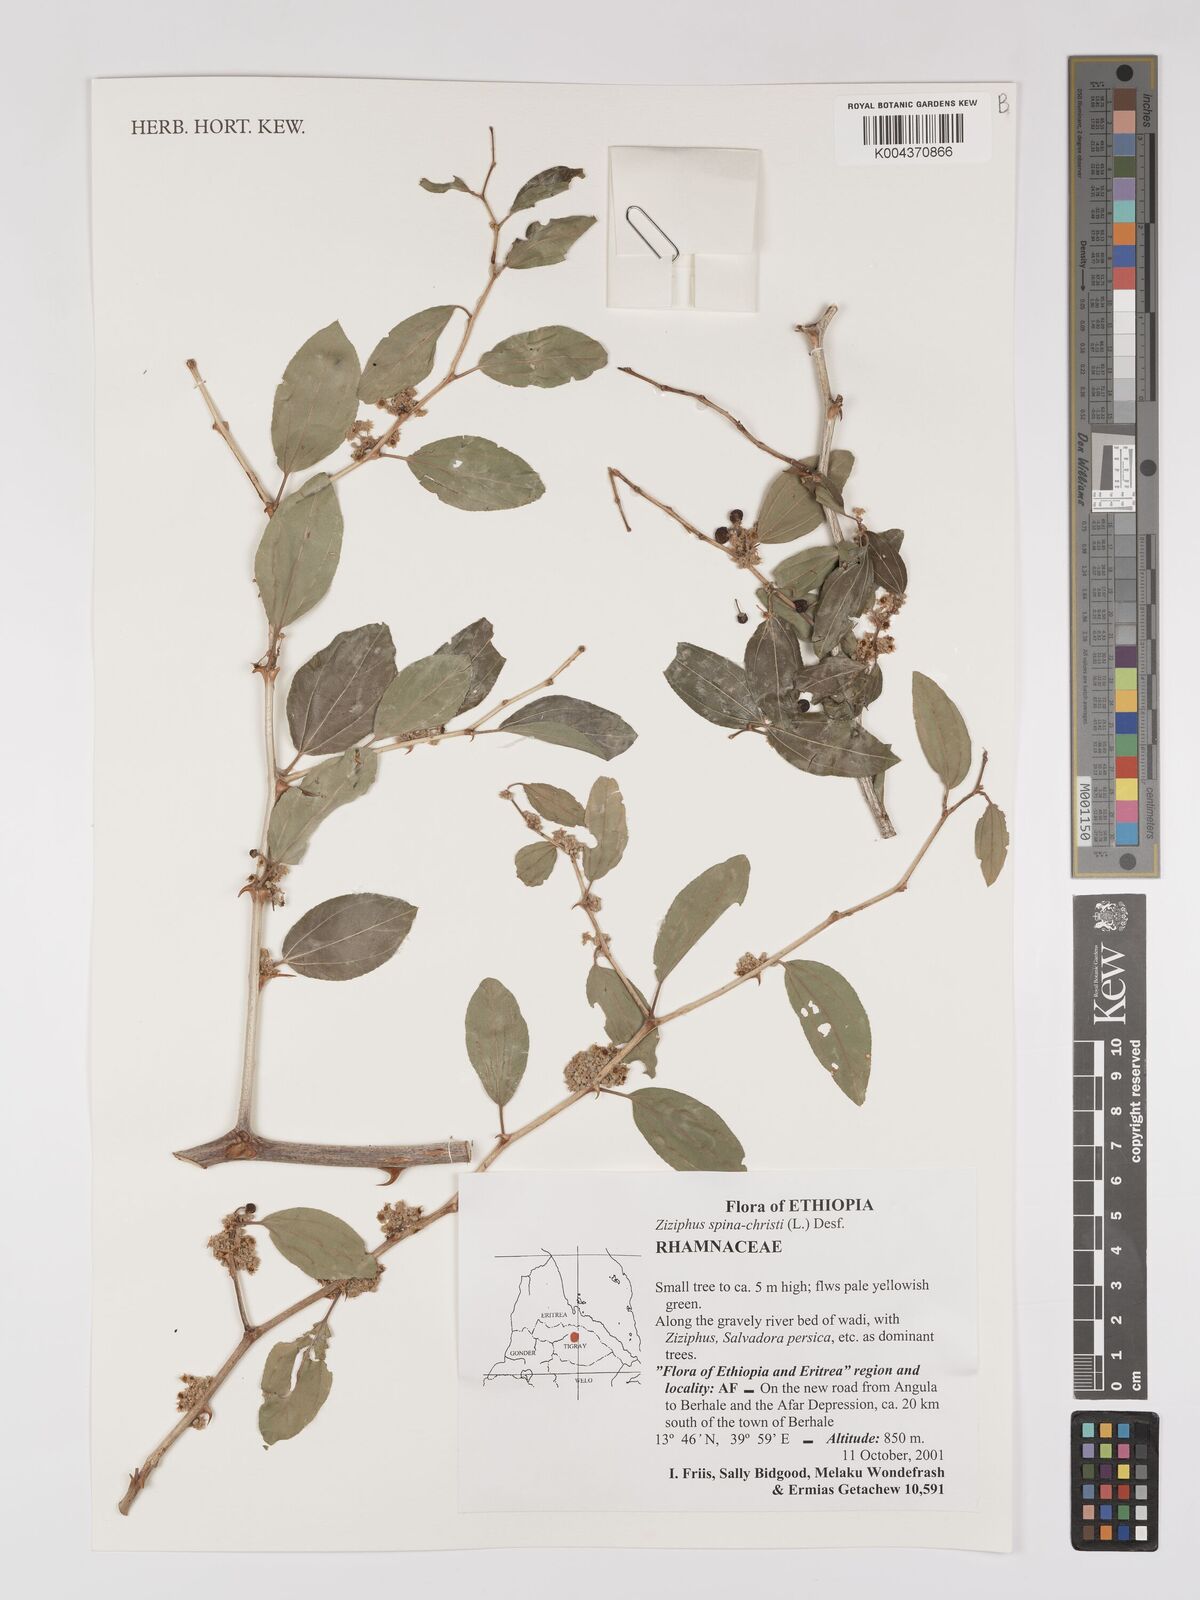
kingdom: Plantae
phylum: Tracheophyta
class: Magnoliopsida
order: Rosales
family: Rhamnaceae
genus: Ziziphus
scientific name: Ziziphus spina-christi
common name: Syrian christ-thorn
